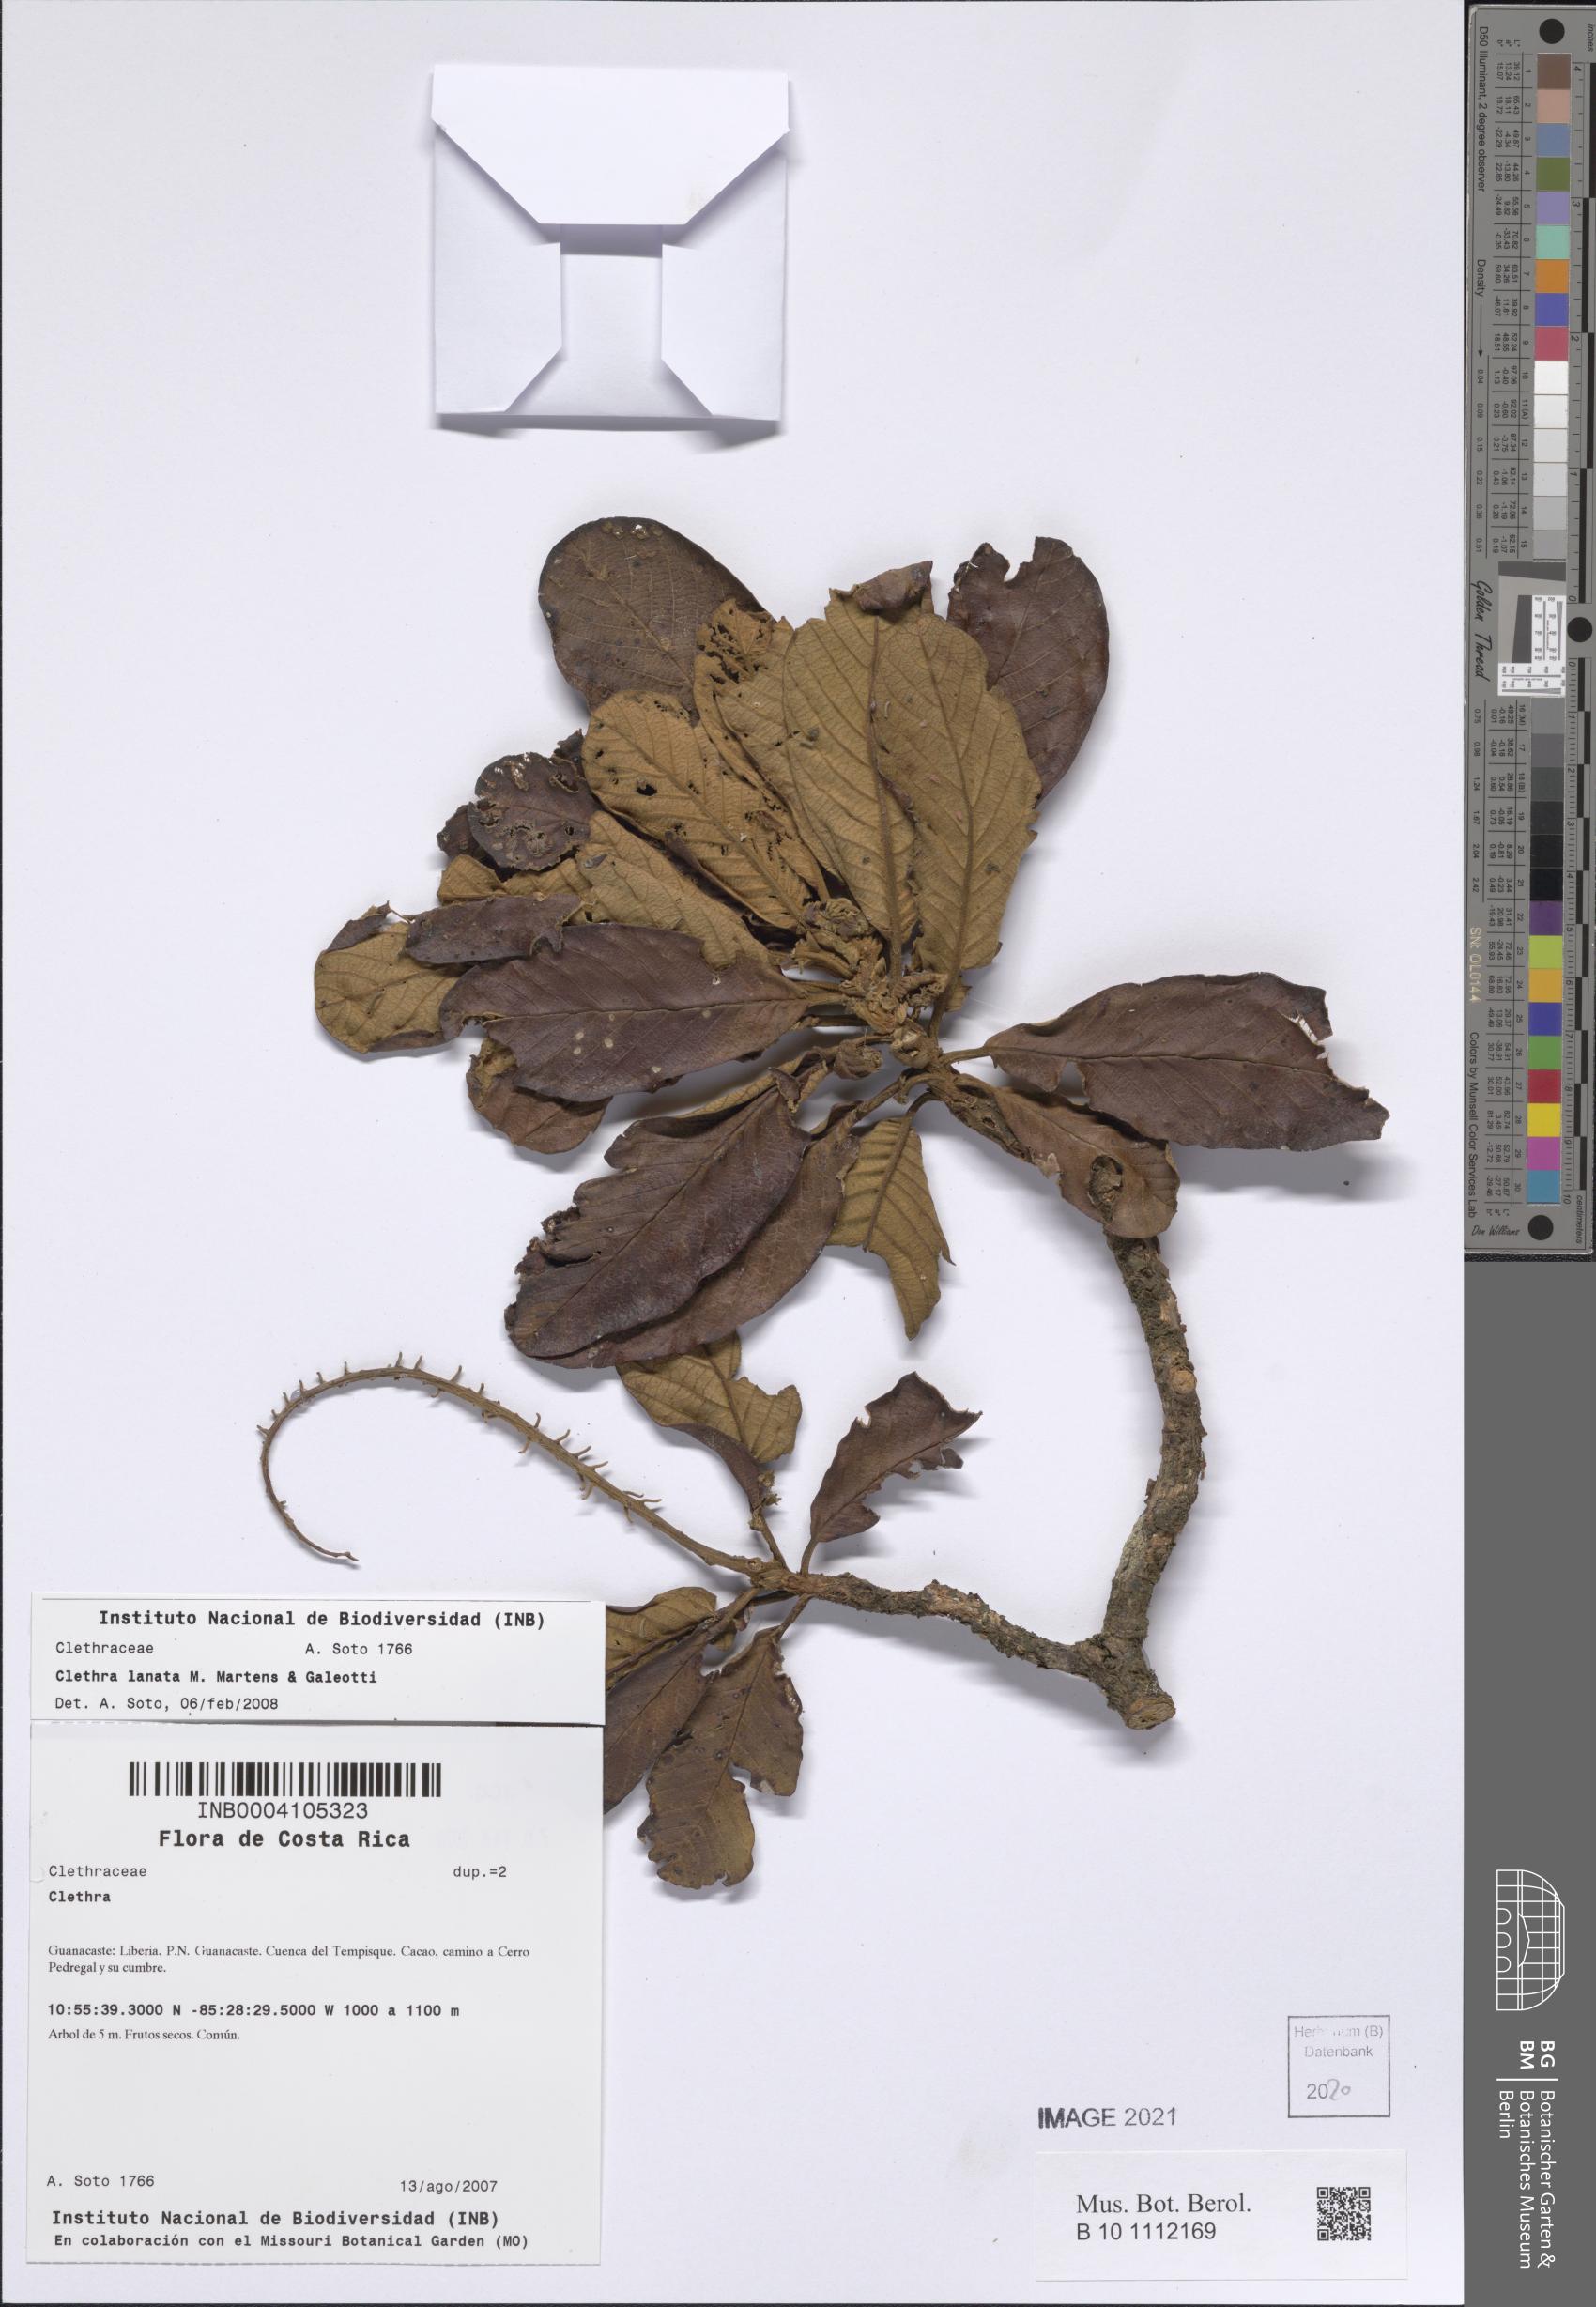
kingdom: Plantae
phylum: Tracheophyta
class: Magnoliopsida
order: Ericales
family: Clethraceae
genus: Clethra
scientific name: Clethra lanata
